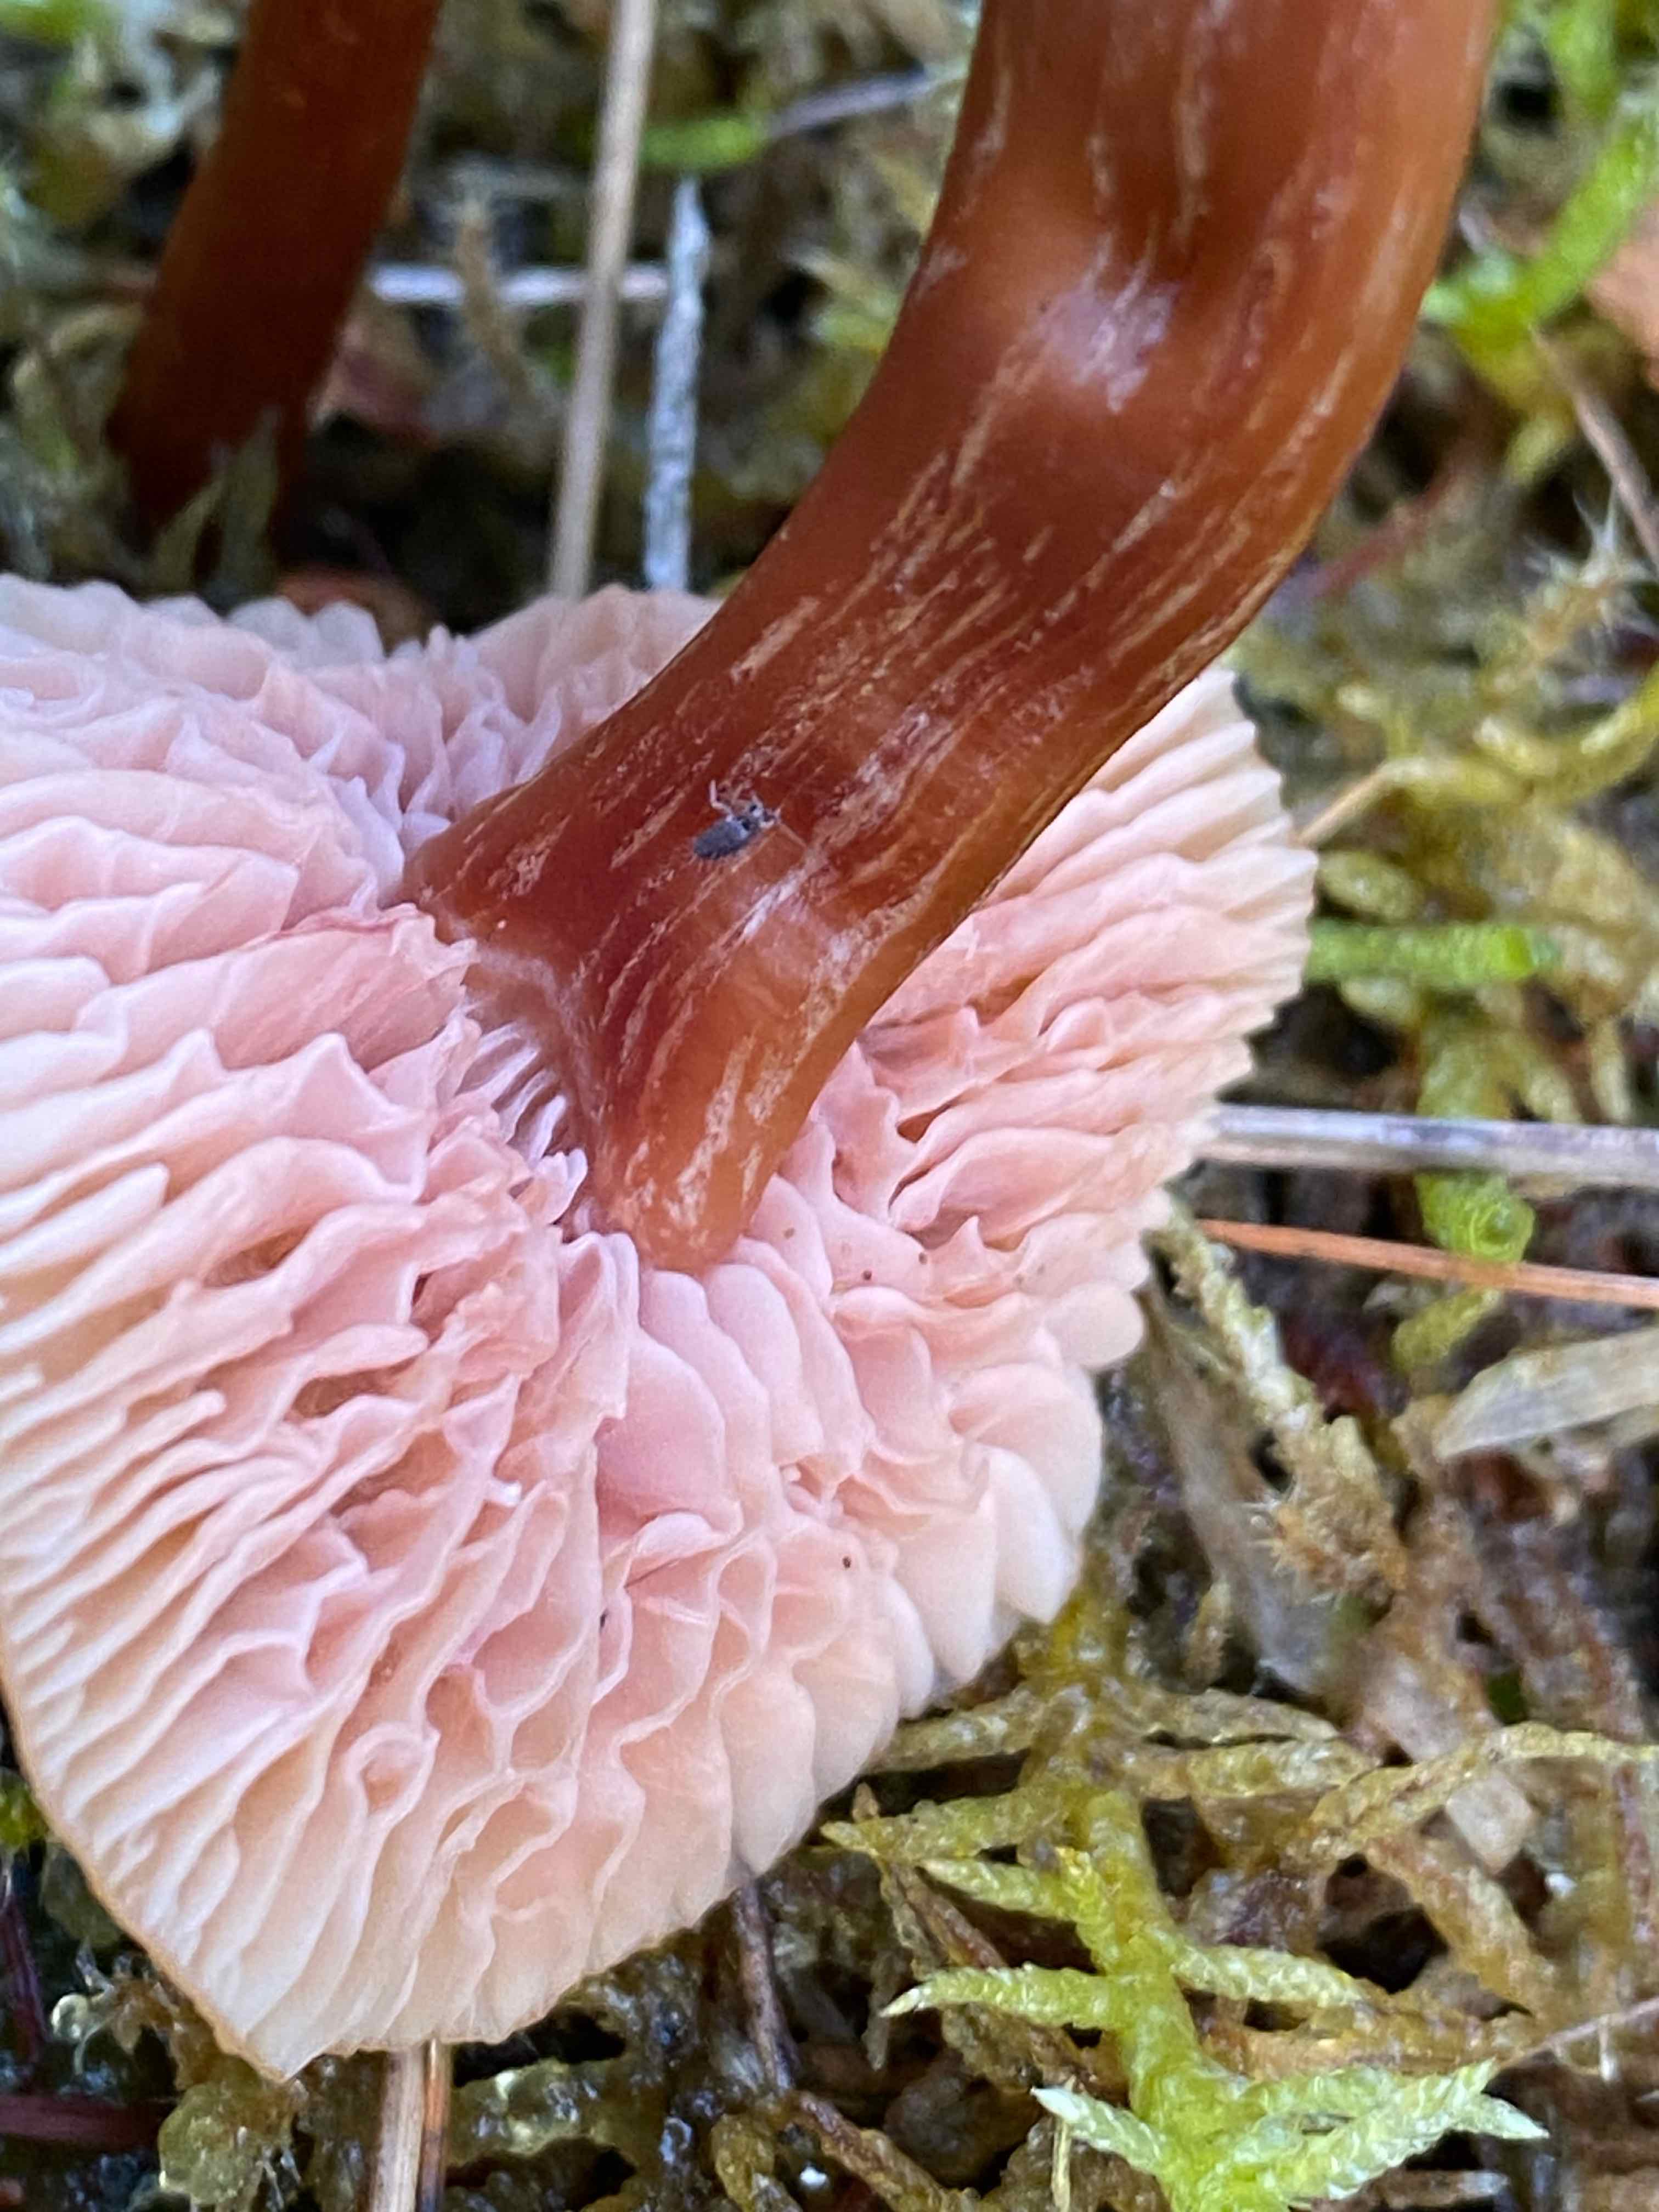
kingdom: Fungi
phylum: Basidiomycota
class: Agaricomycetes
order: Agaricales
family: Hydnangiaceae
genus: Laccaria
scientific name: Laccaria laccata
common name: rød ametysthat
